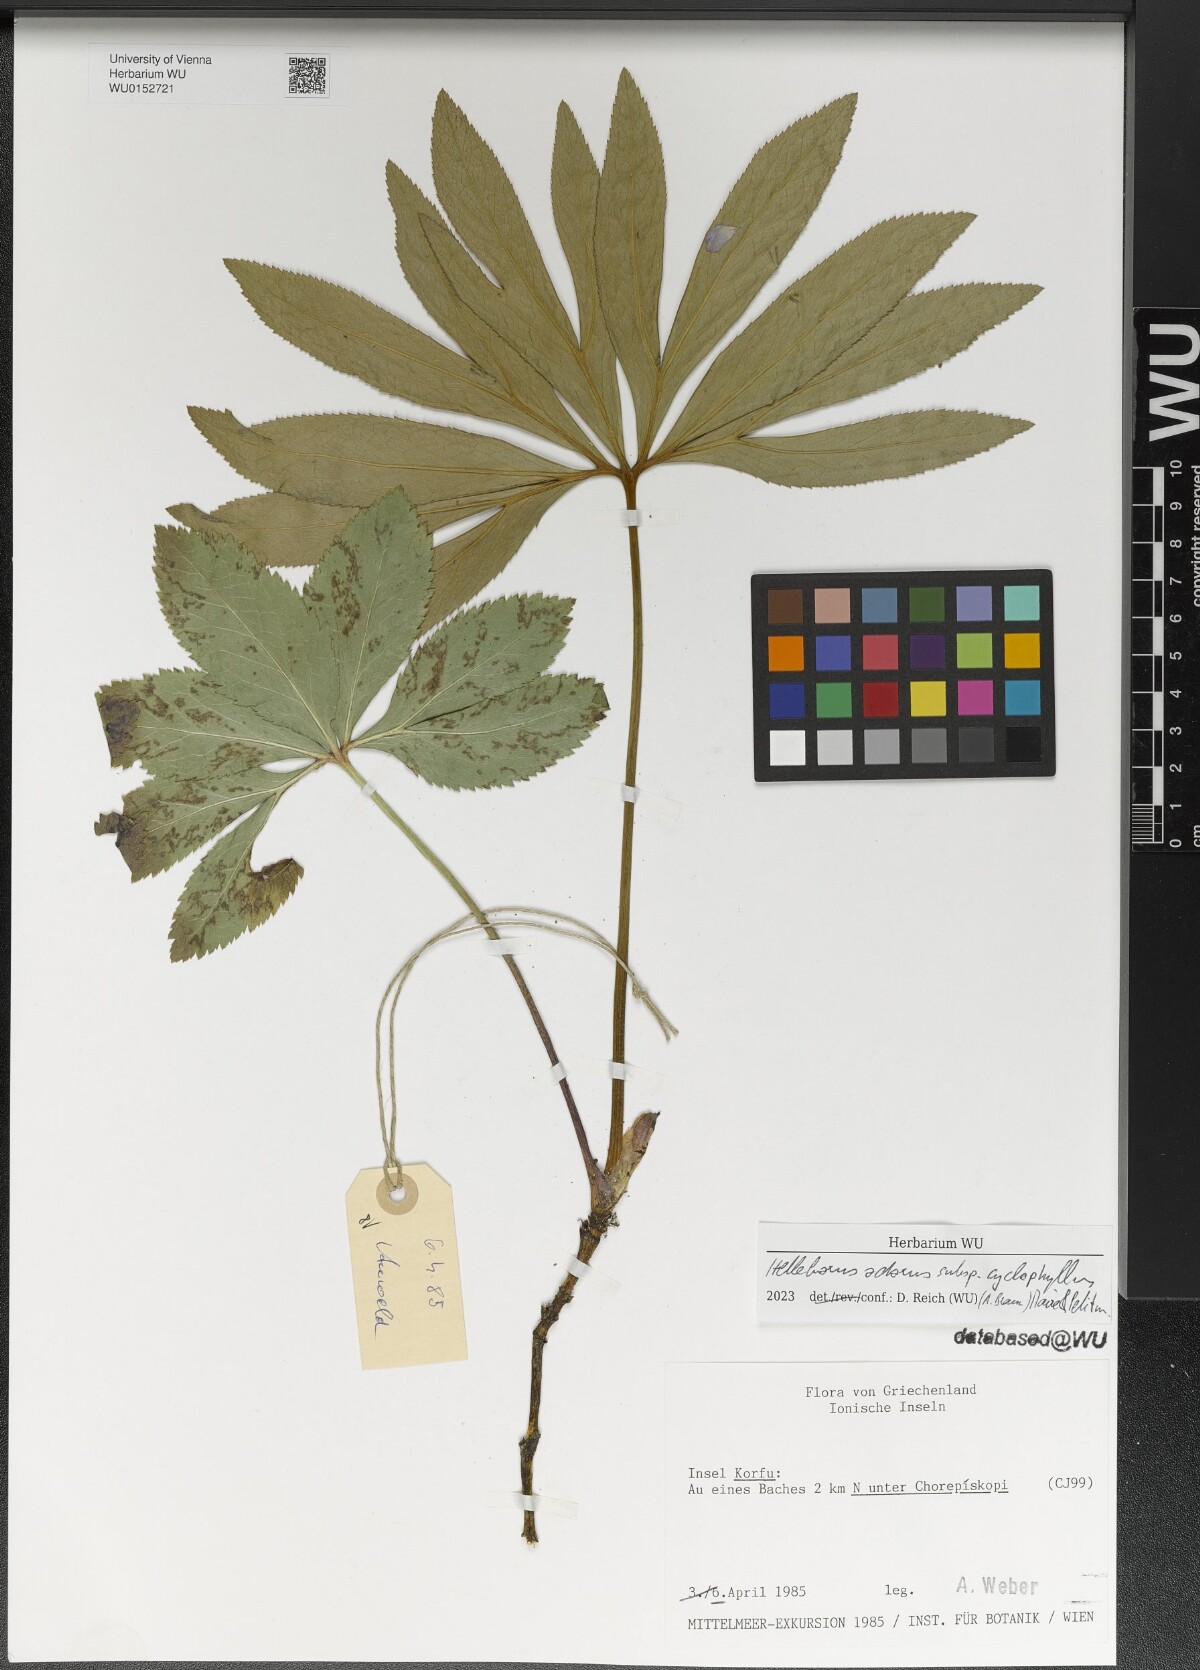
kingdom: Plantae
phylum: Tracheophyta
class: Magnoliopsida
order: Ranunculales
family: Ranunculaceae
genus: Helleborus
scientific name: Helleborus odorus
